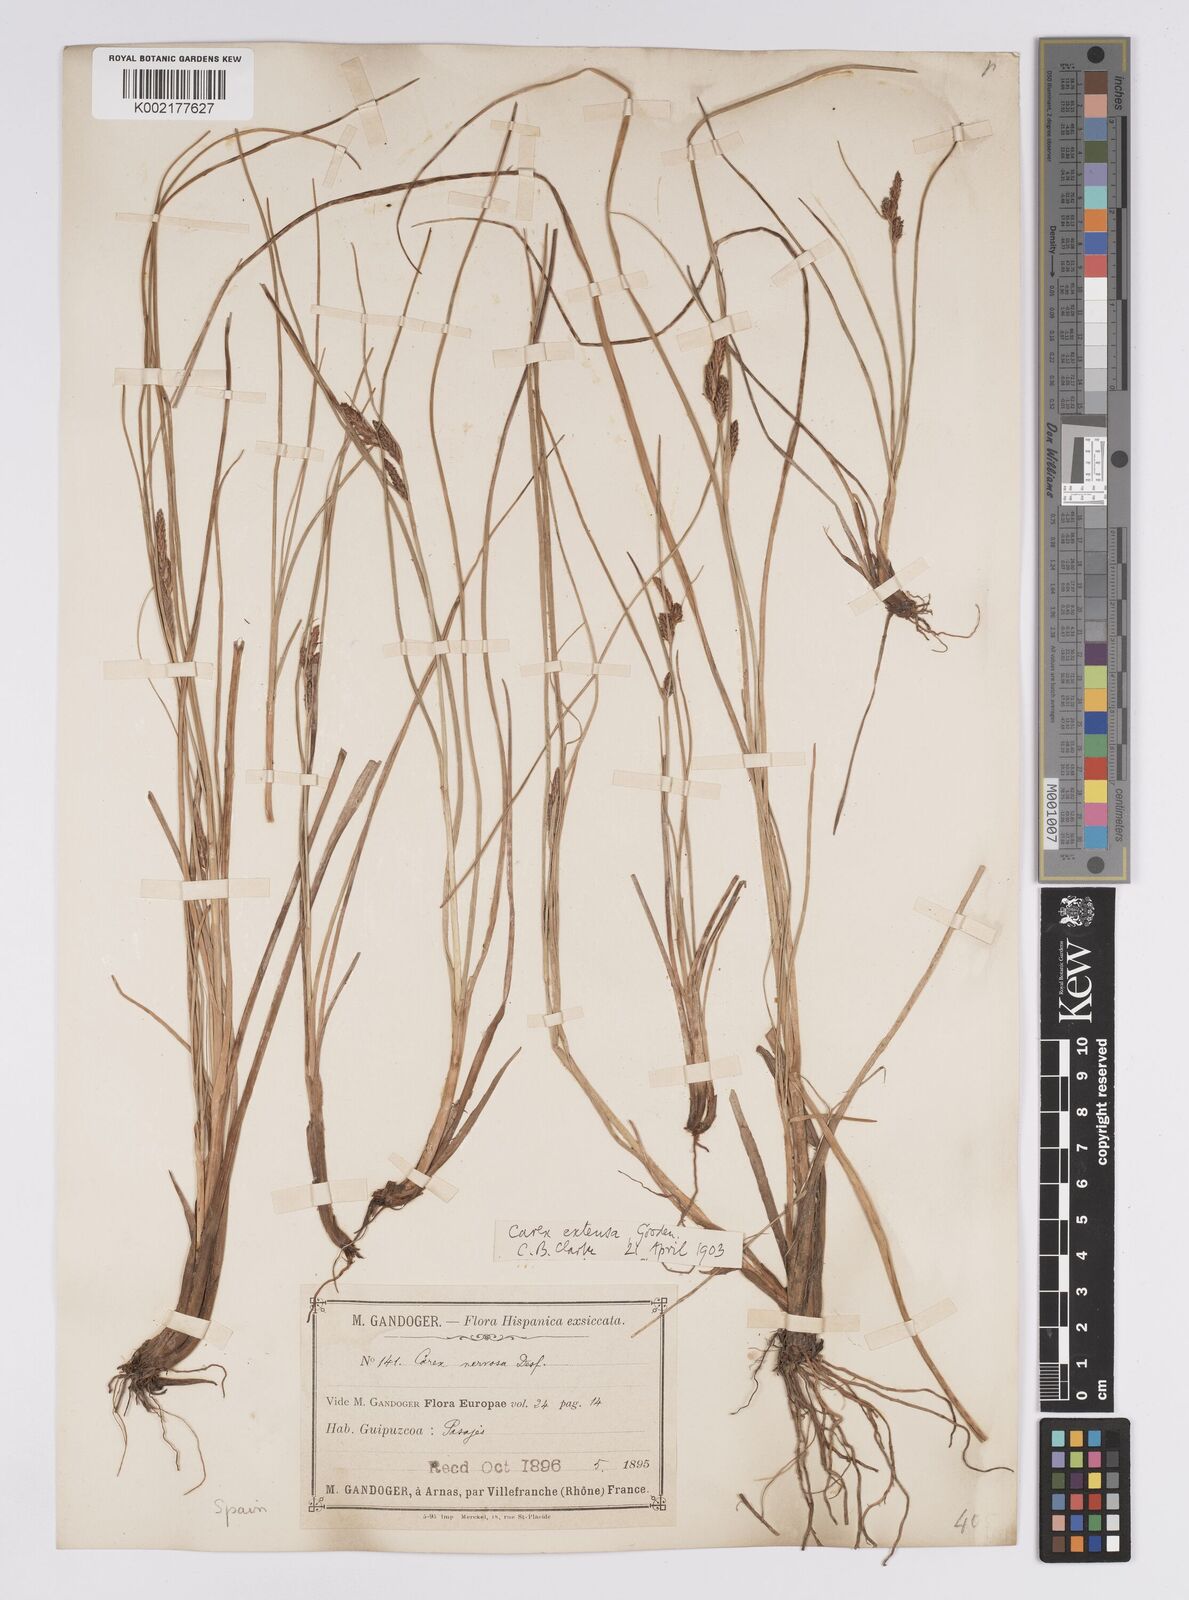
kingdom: Plantae
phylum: Tracheophyta
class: Liliopsida
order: Poales
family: Cyperaceae
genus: Carex
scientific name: Carex extensa
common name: Long-bracted sedge
